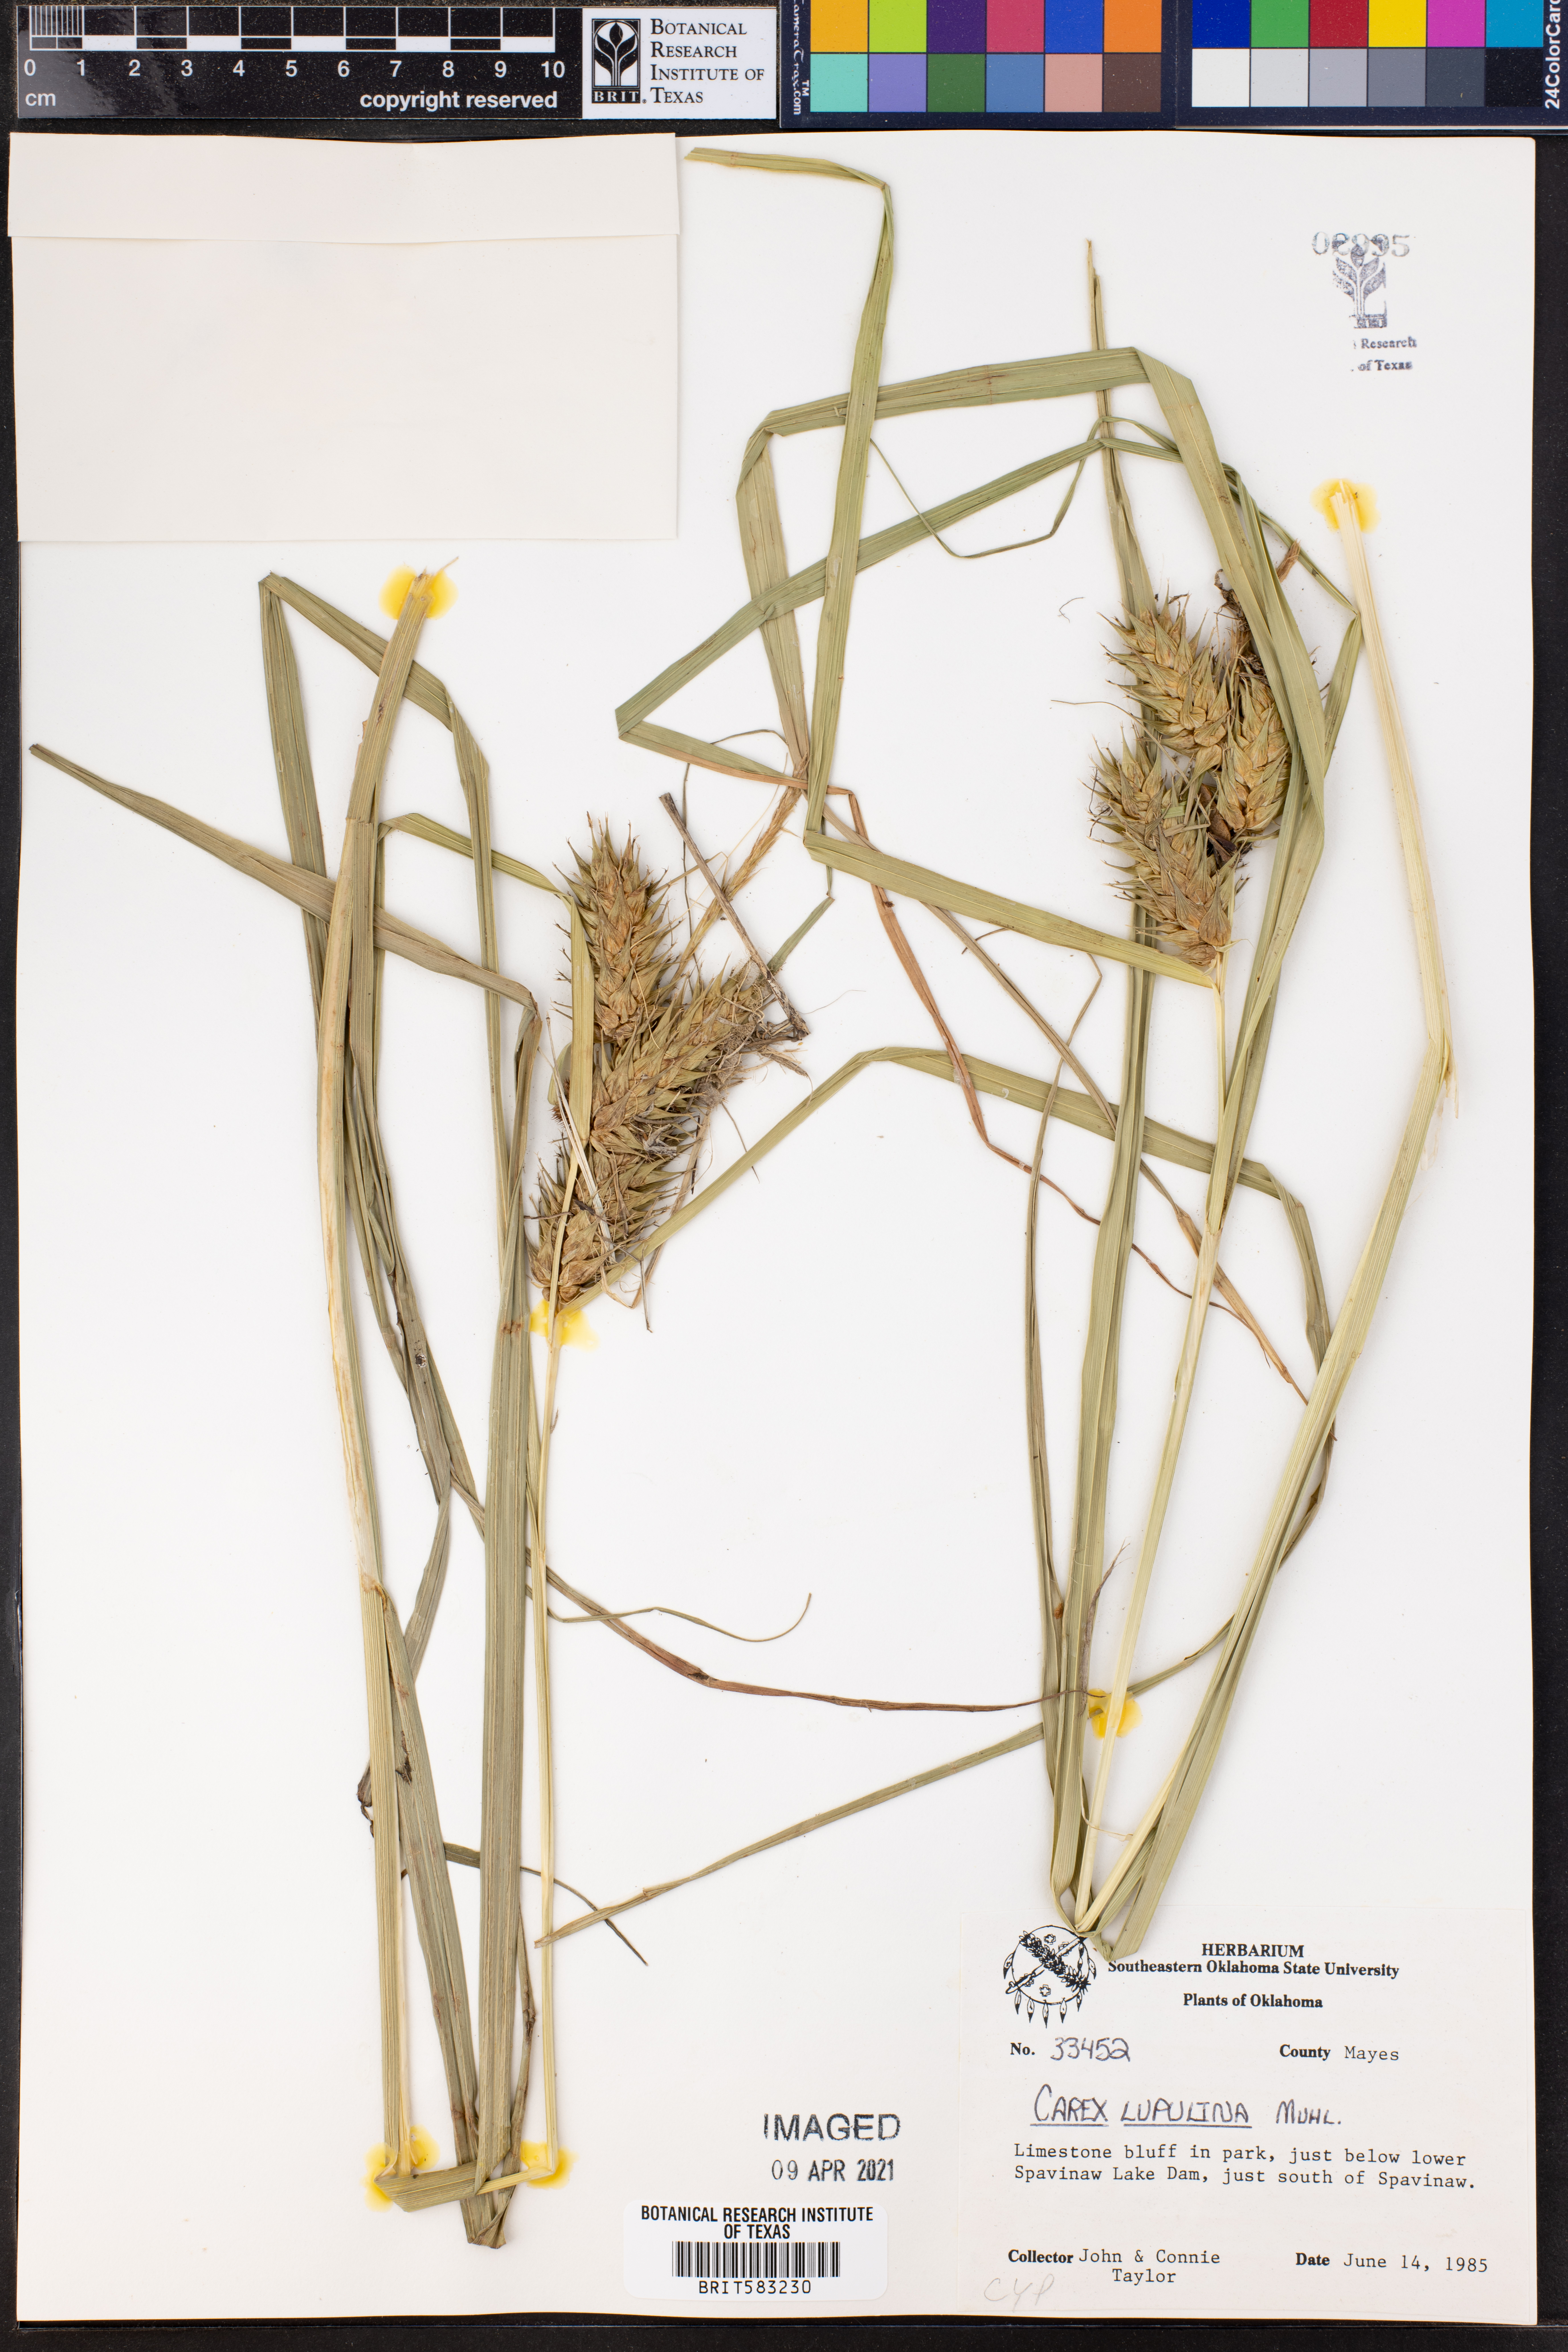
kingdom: Plantae
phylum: Tracheophyta
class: Liliopsida
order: Poales
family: Cyperaceae
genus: Carex
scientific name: Carex lupulina
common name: Hop sedge
